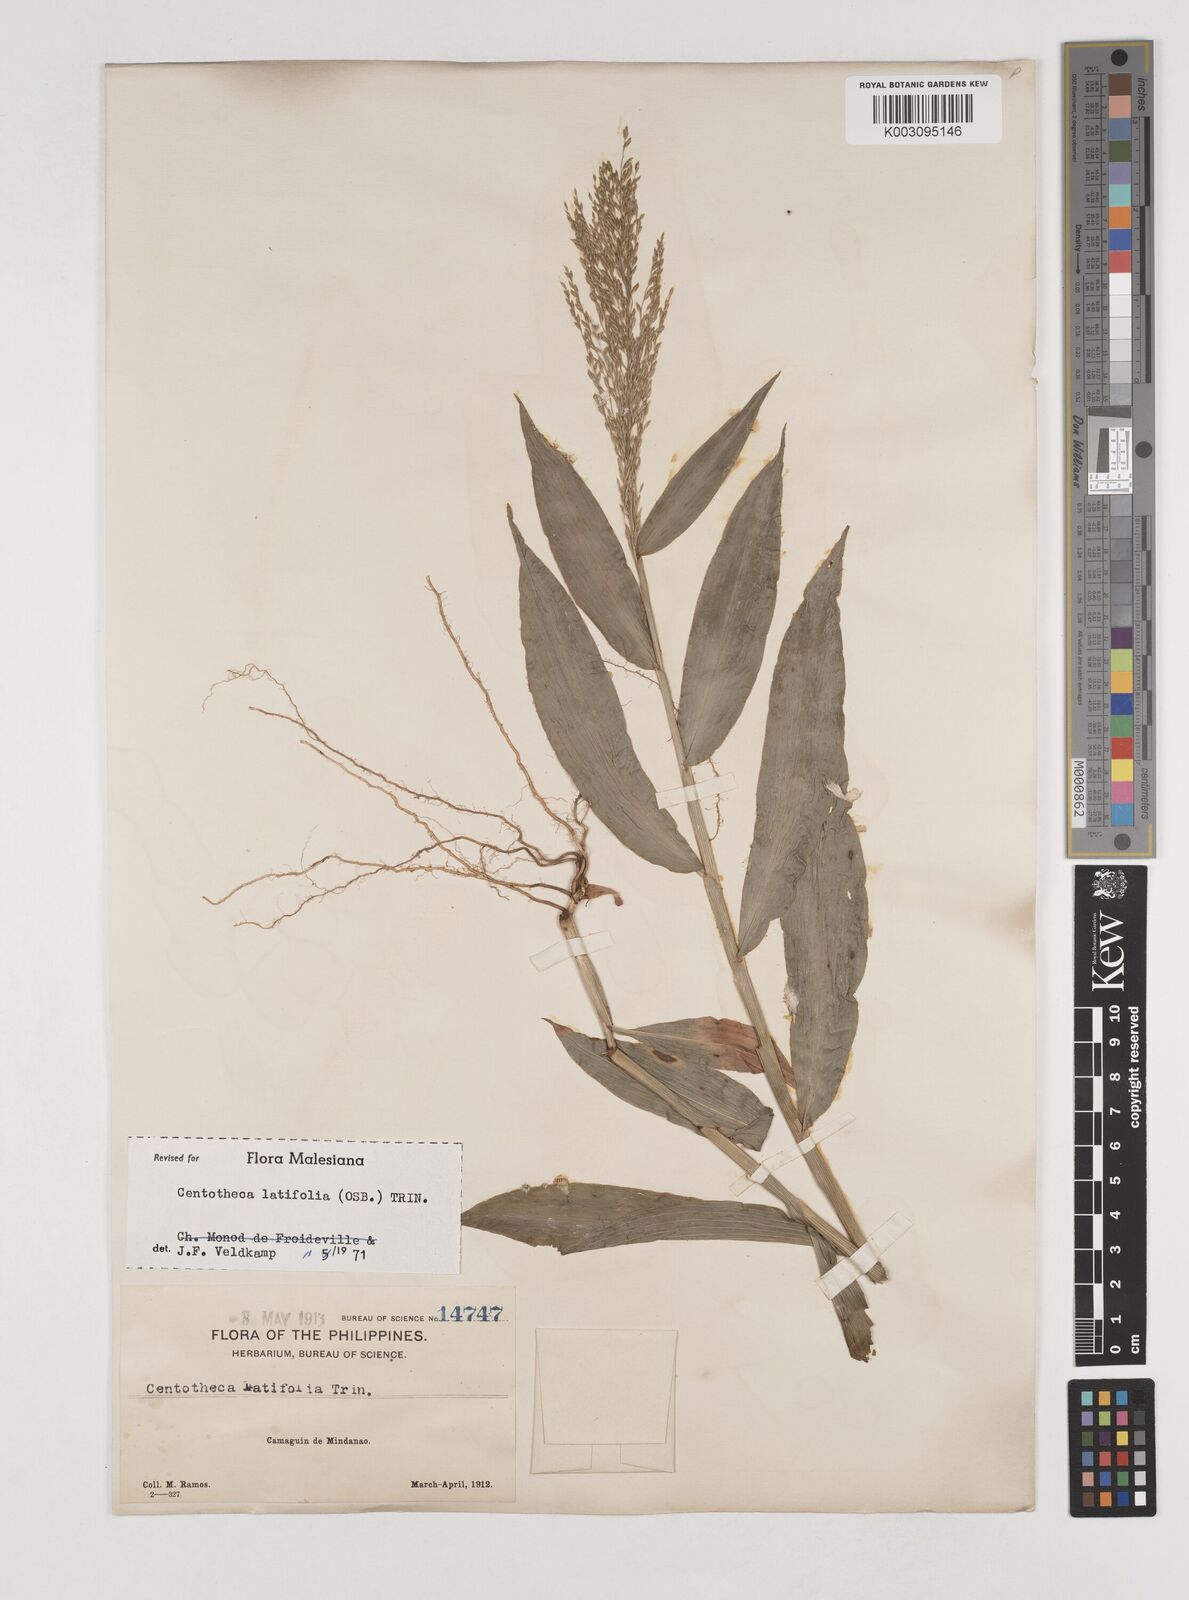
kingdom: Plantae
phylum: Tracheophyta
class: Liliopsida
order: Poales
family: Poaceae
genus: Centotheca
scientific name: Centotheca lappacea
